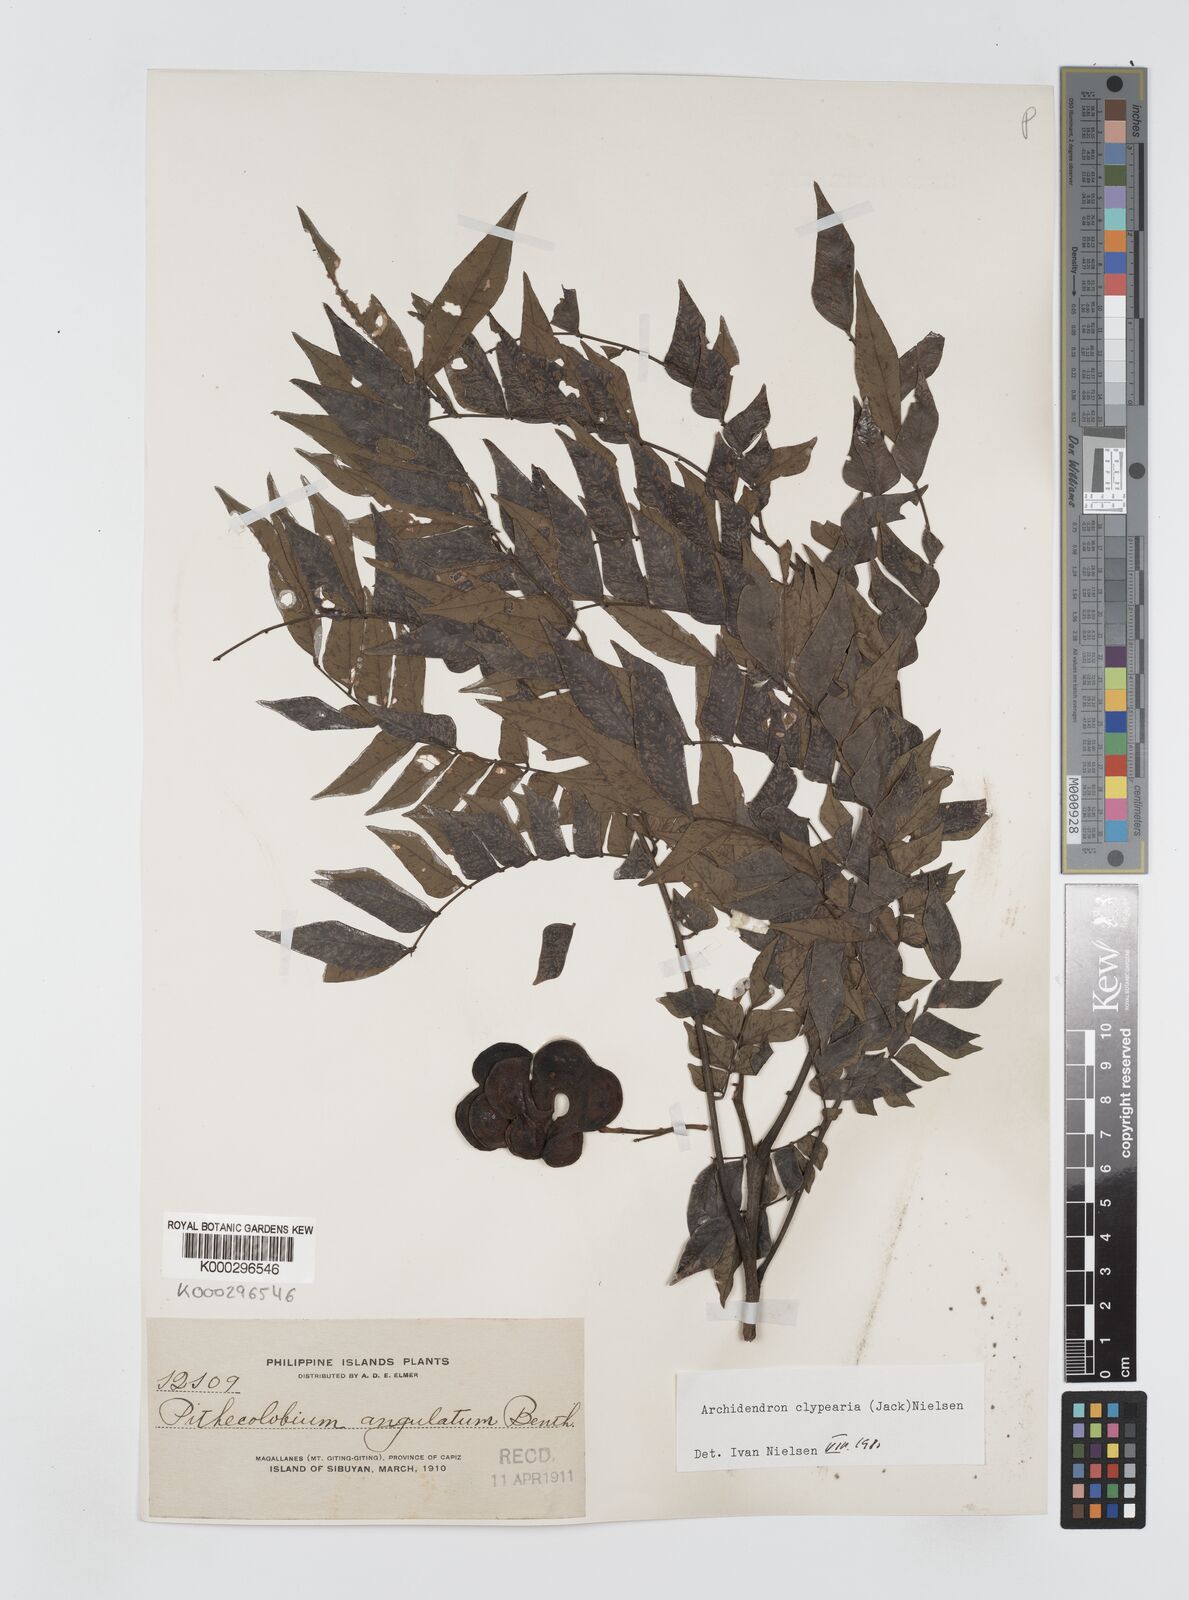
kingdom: Plantae
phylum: Tracheophyta
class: Magnoliopsida
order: Fabales
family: Fabaceae
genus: Archidendron
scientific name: Archidendron clypearia
